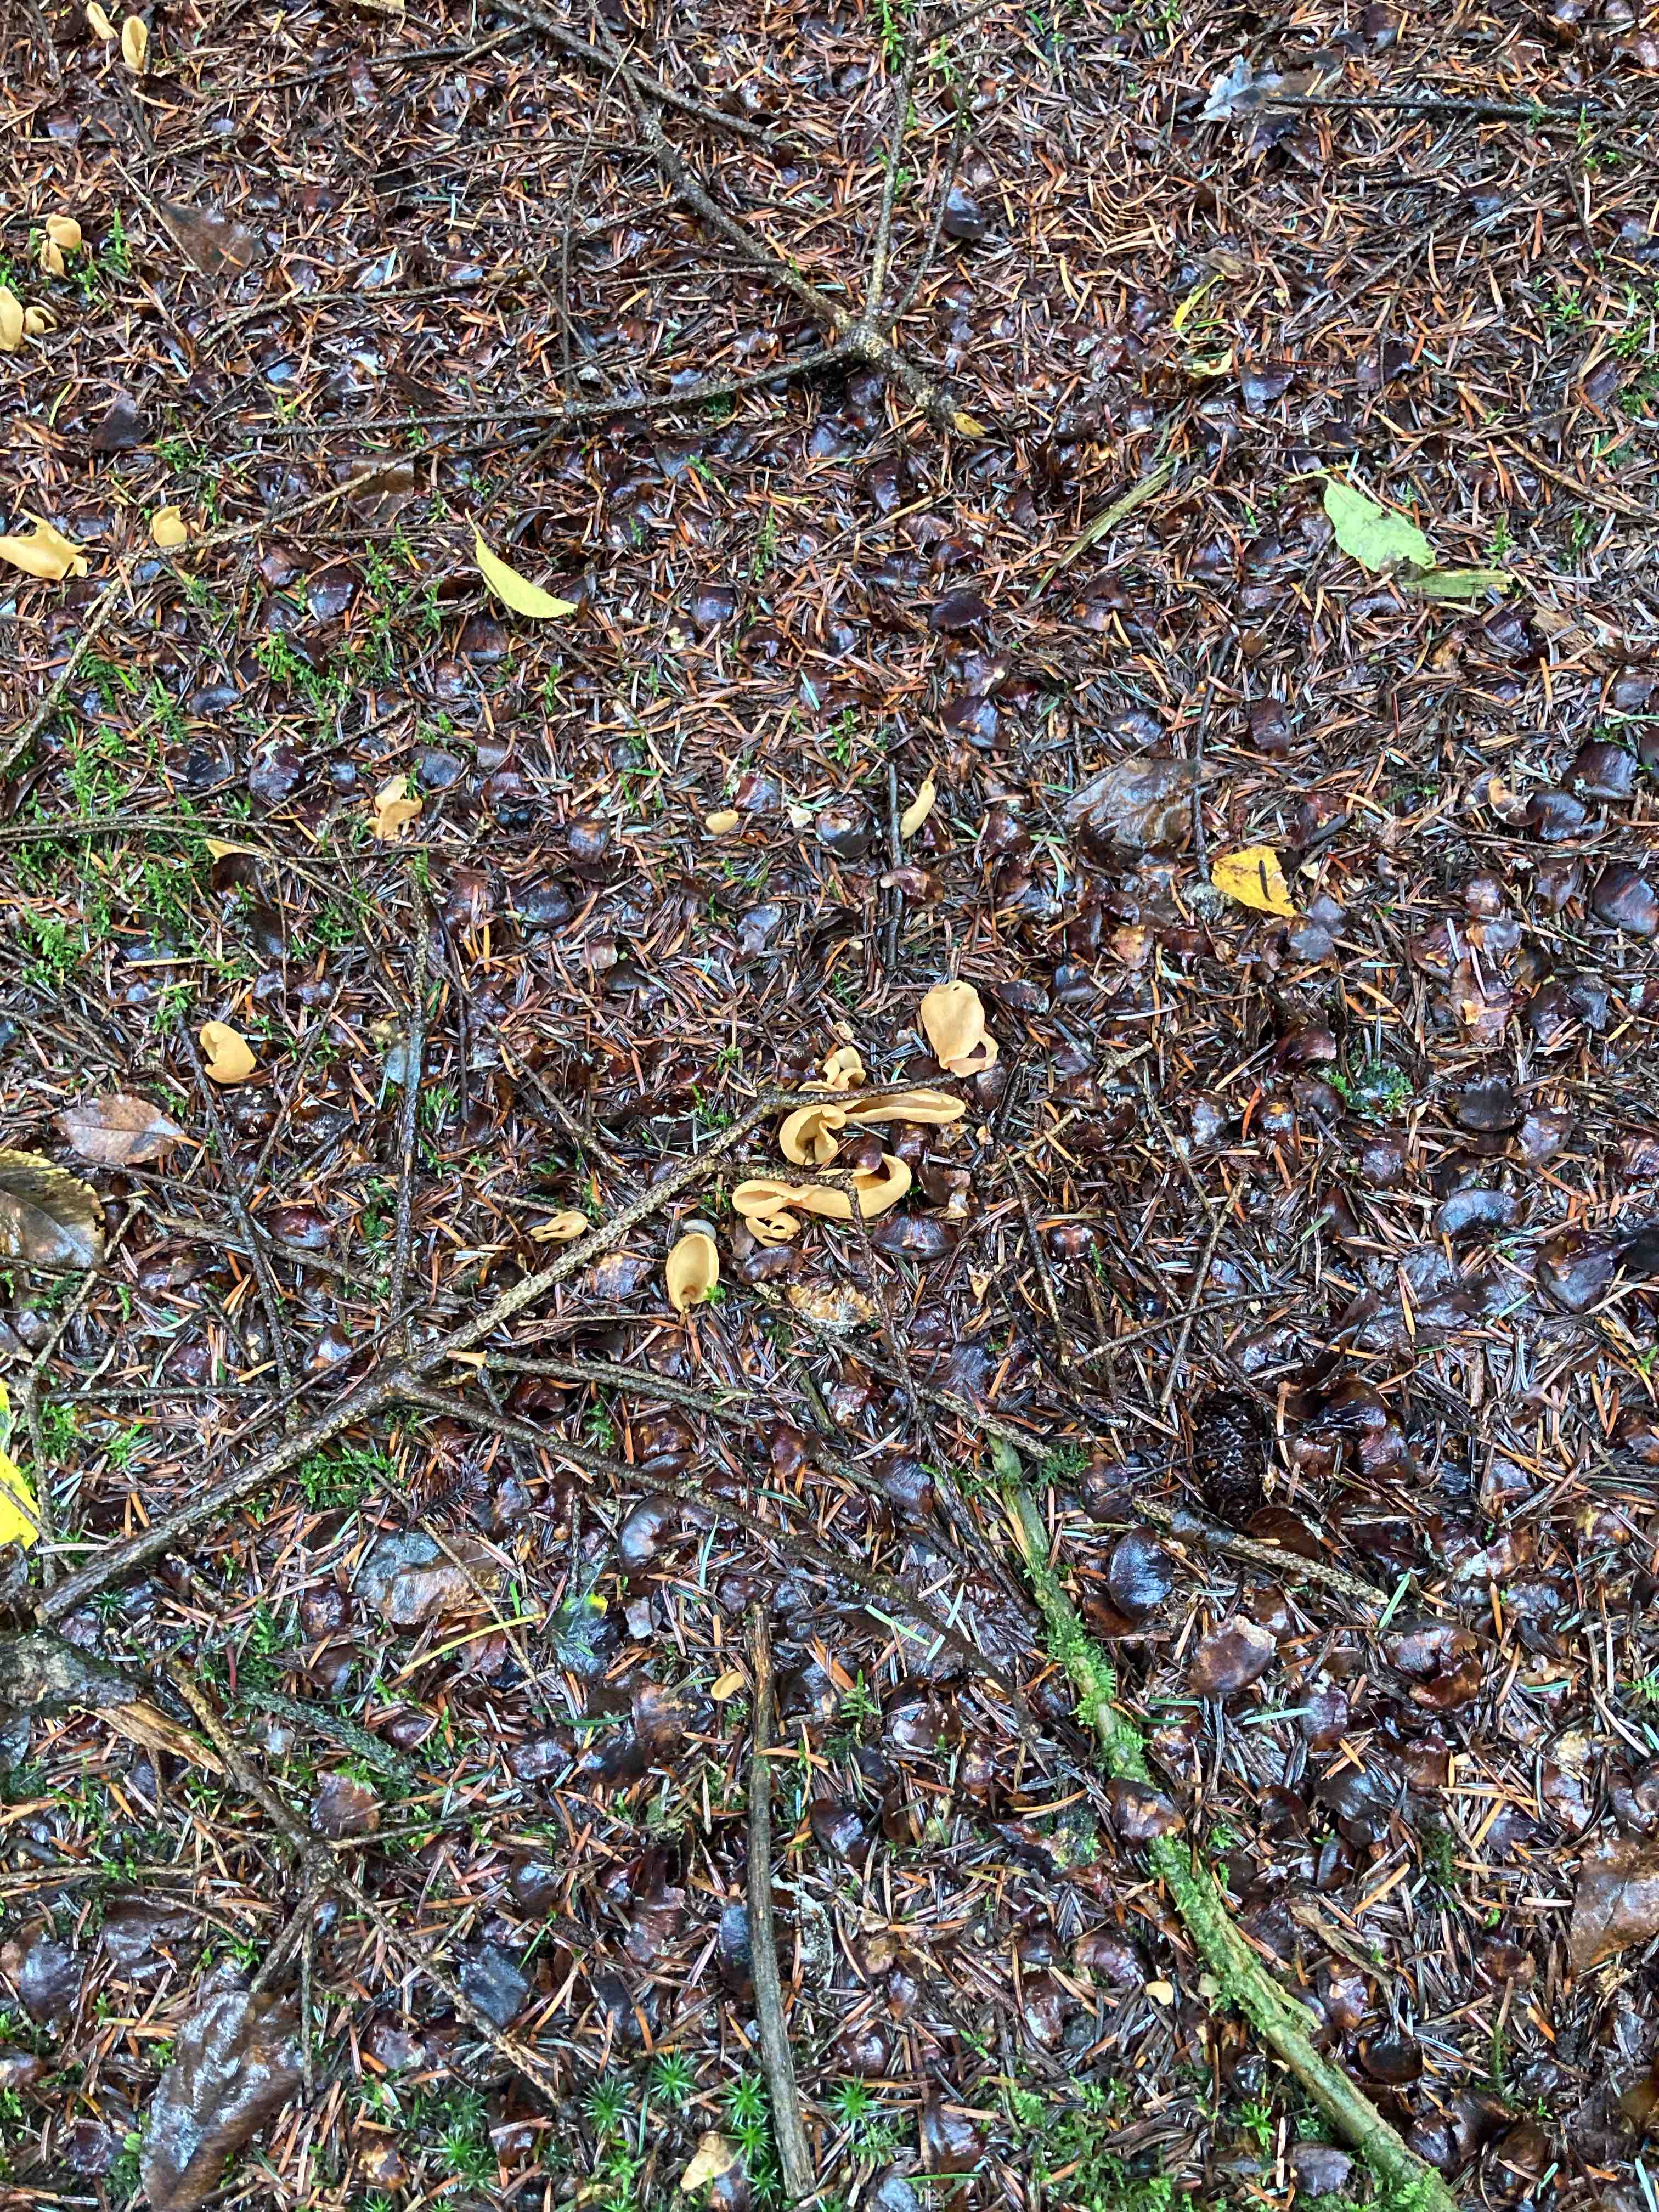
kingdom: Fungi
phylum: Ascomycota
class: Pezizomycetes
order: Pezizales
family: Otideaceae
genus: Otidea
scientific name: Otidea
